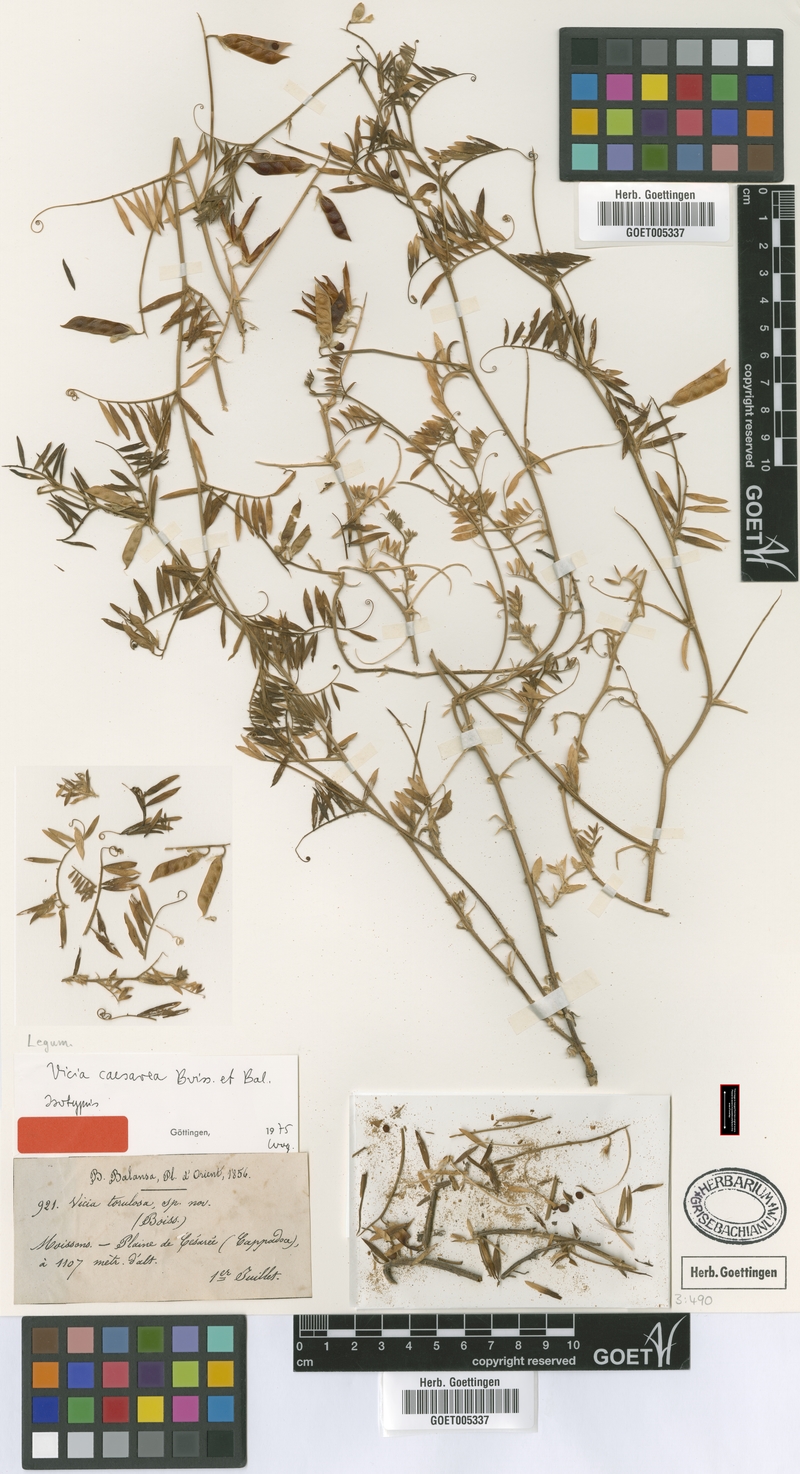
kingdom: Plantae
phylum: Tracheophyta
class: Magnoliopsida
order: Fabales
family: Fabaceae
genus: Vicia
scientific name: Vicia caesarea
